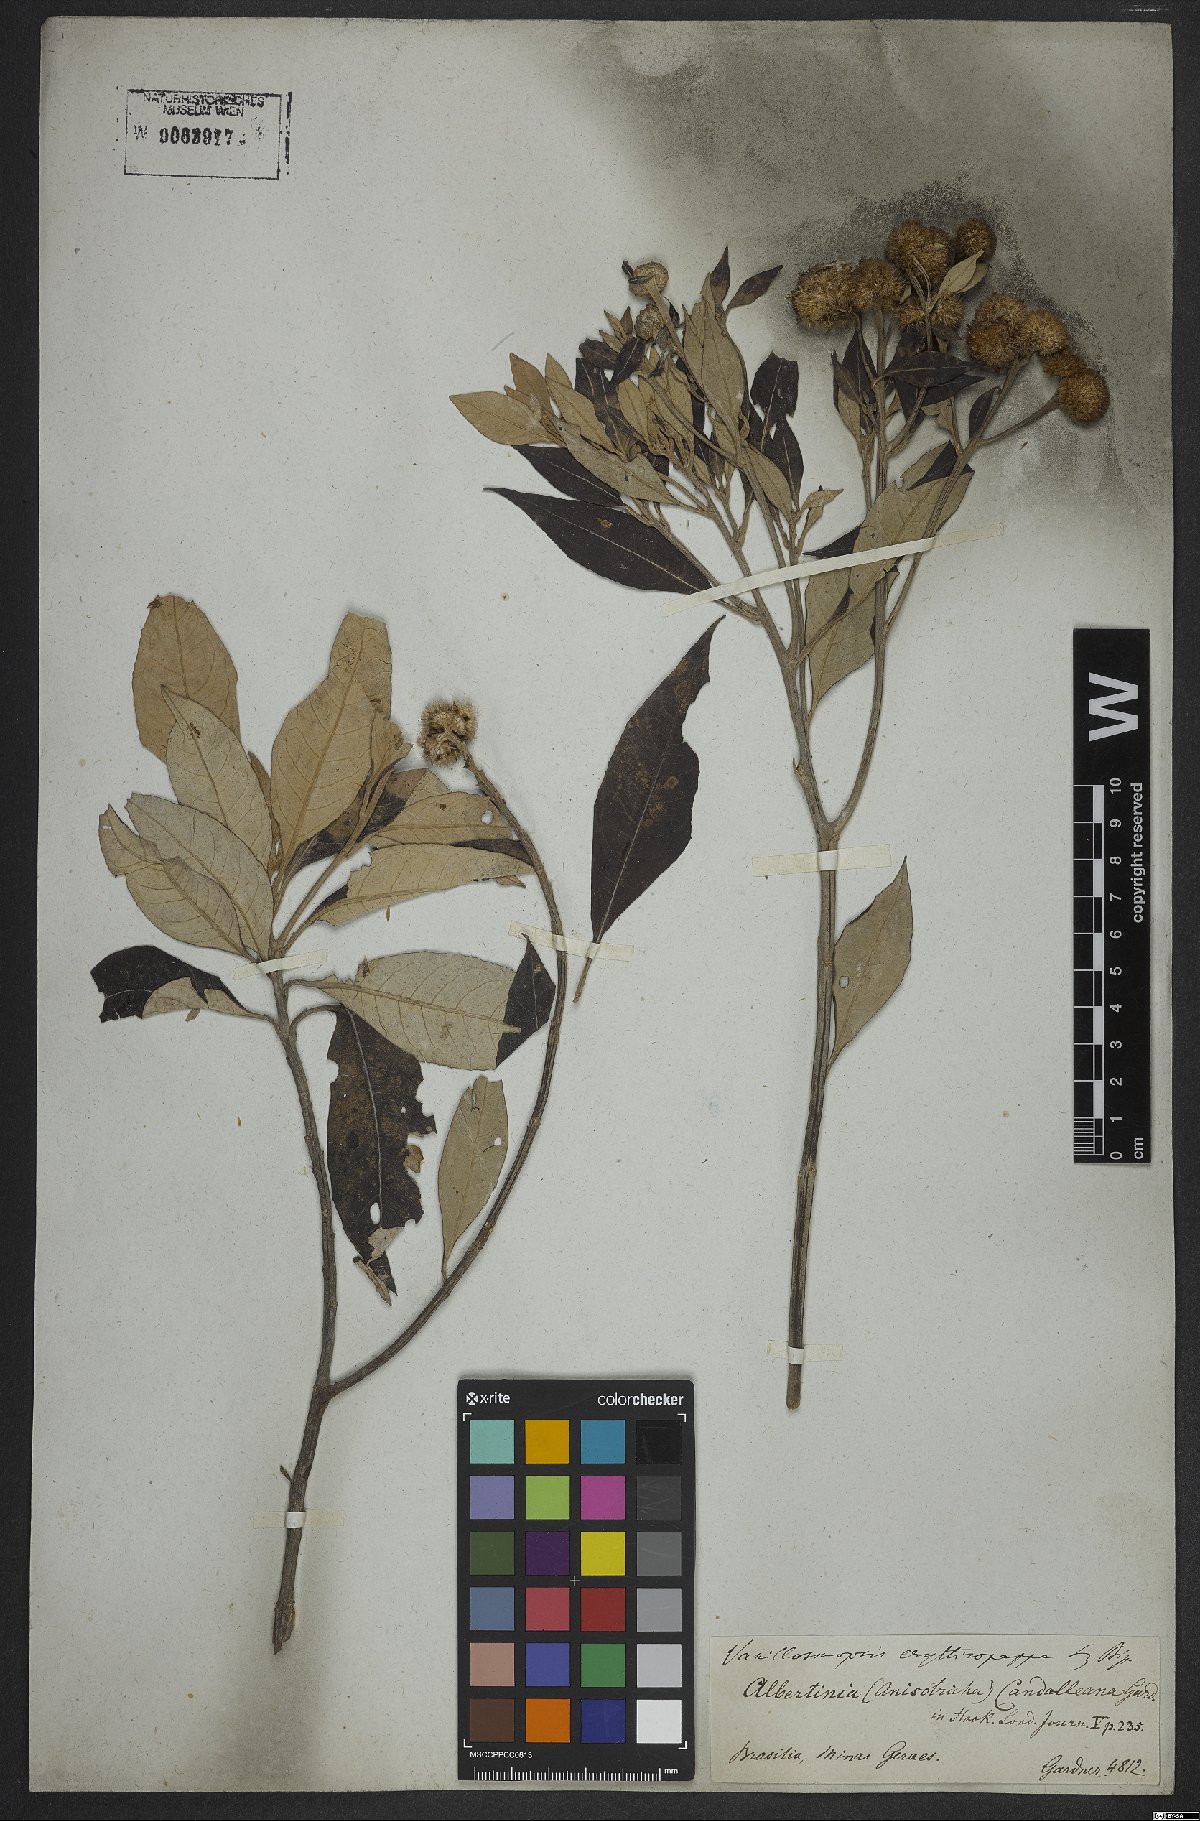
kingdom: Plantae
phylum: Tracheophyta
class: Magnoliopsida
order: Asterales
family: Asteraceae
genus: Eremanthus
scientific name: Eremanthus erythropappus
